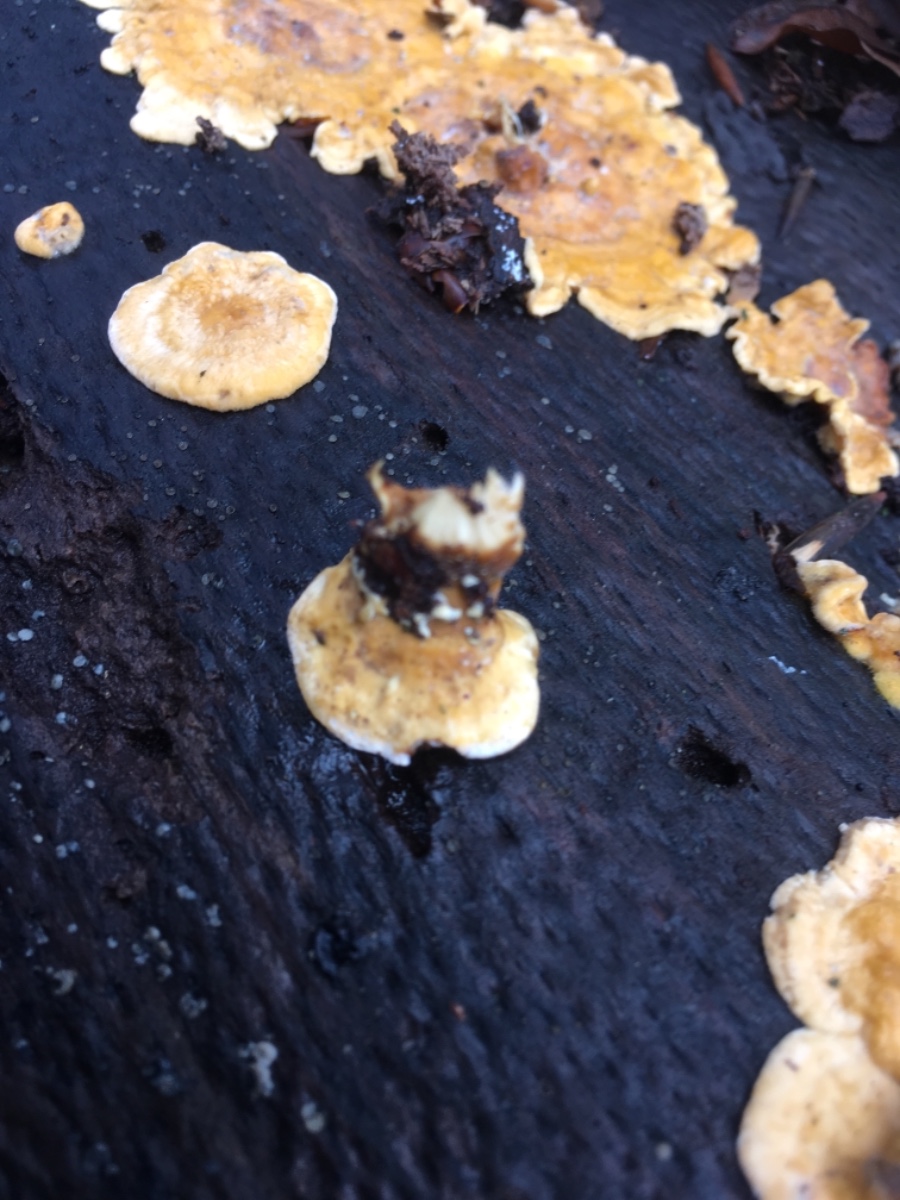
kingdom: Fungi
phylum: Basidiomycota
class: Agaricomycetes
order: Russulales
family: Stereaceae
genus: Stereum
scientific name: Stereum hirsutum
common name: håret lædersvamp
